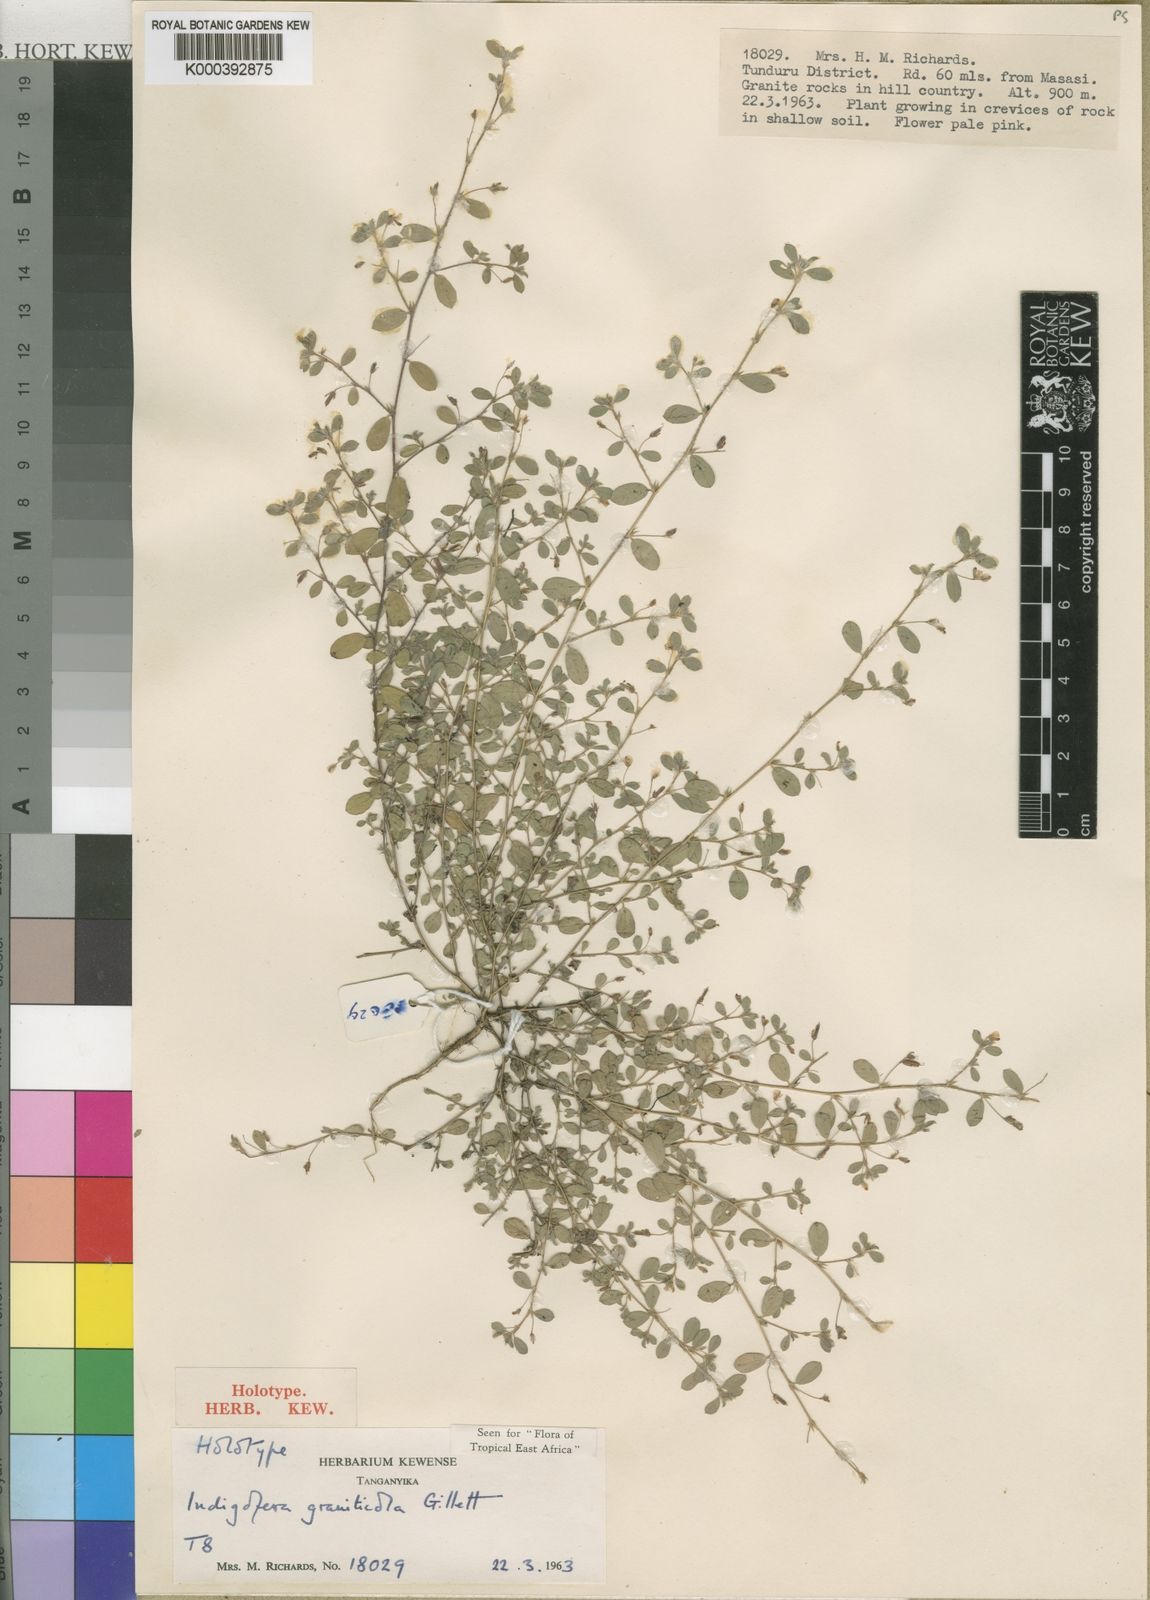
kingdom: Plantae
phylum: Tracheophyta
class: Magnoliopsida
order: Fabales
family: Fabaceae
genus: Indigofera
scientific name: Indigofera graniticola
